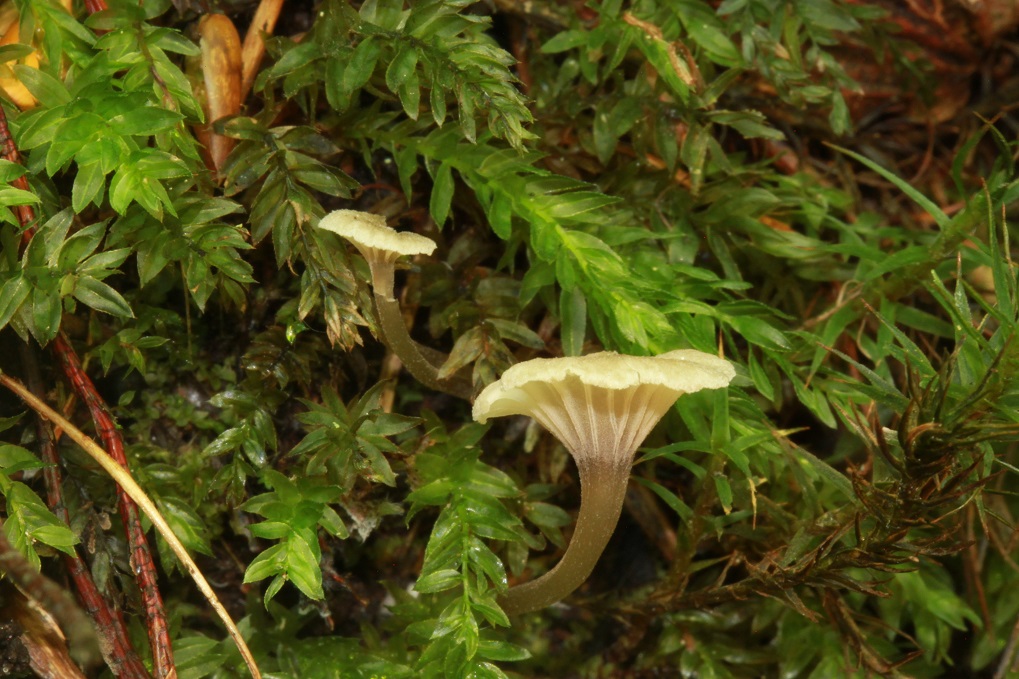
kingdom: Fungi
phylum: Basidiomycota
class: Agaricomycetes
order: Agaricales
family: Entolomataceae
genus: Entoloma
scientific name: Entoloma rhodocylix
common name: fjernbladet rødblad
